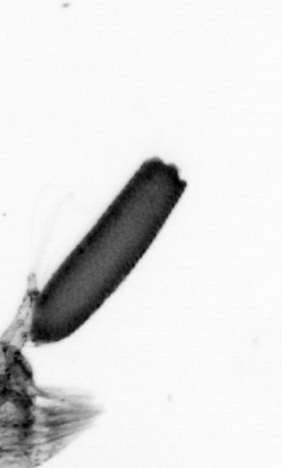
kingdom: Animalia
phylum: Arthropoda
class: Copepoda
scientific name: Copepoda
